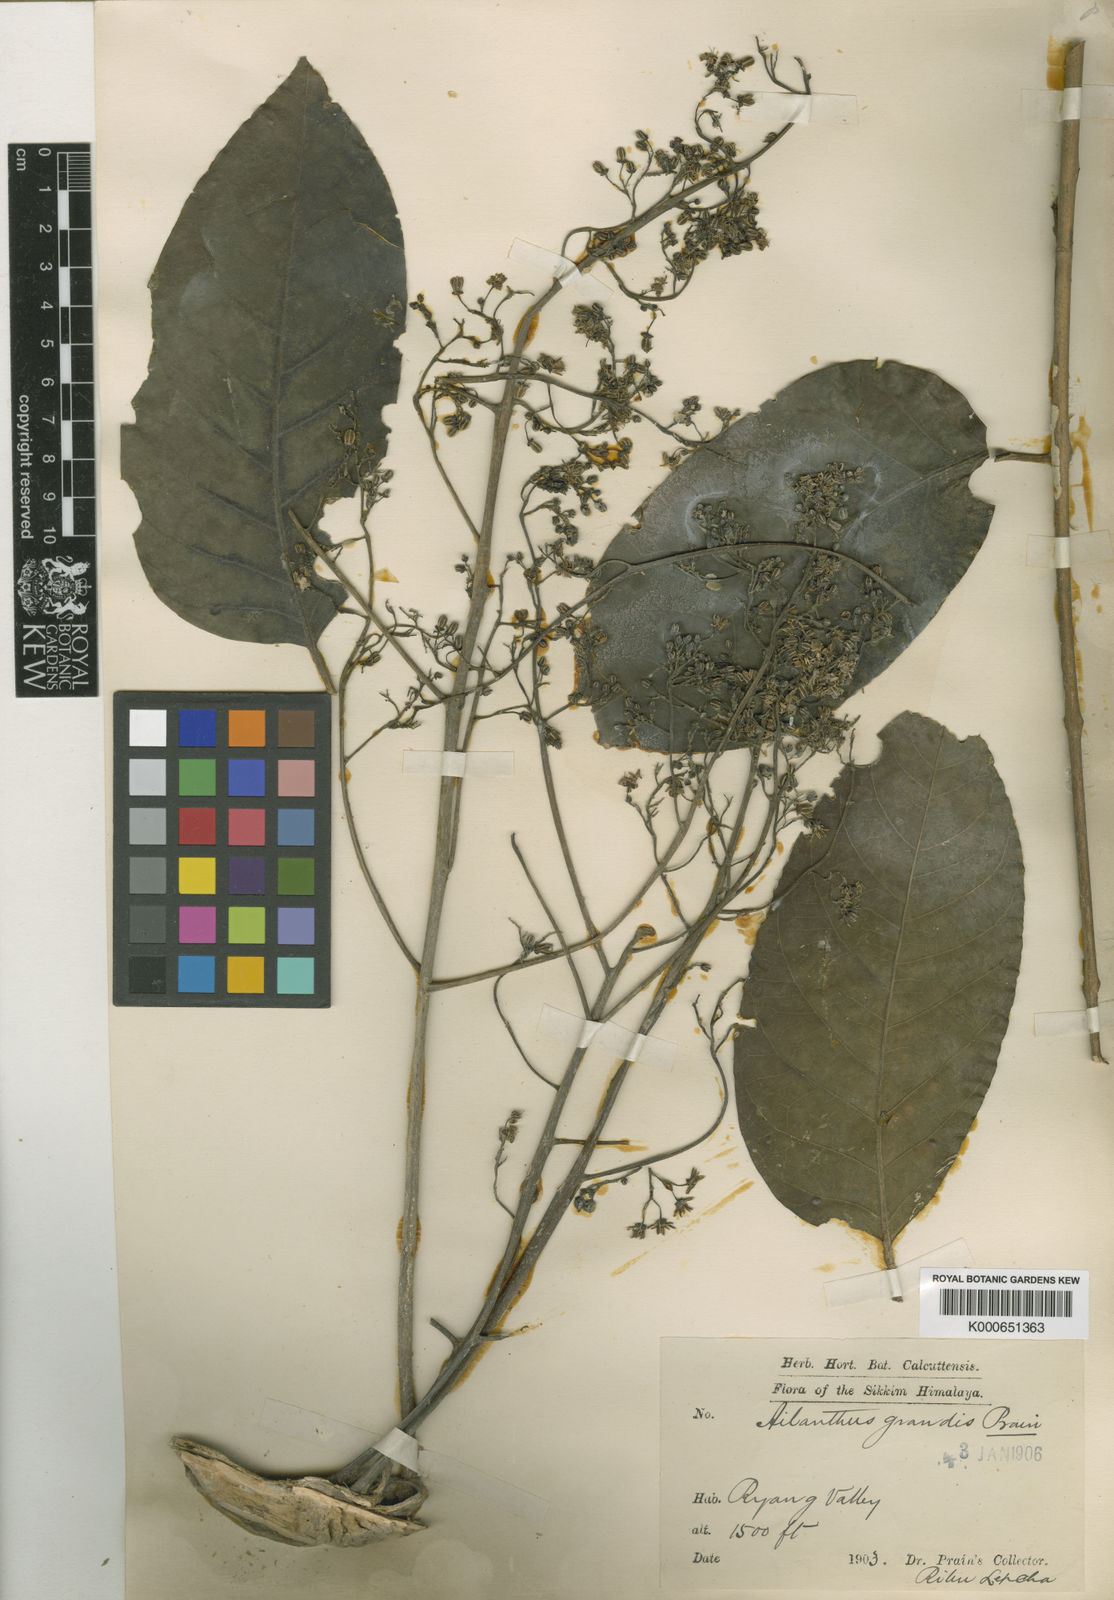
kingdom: Plantae
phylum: Tracheophyta
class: Magnoliopsida
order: Sapindales
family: Simaroubaceae
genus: Ailanthus
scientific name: Ailanthus integrifolia
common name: White siris
